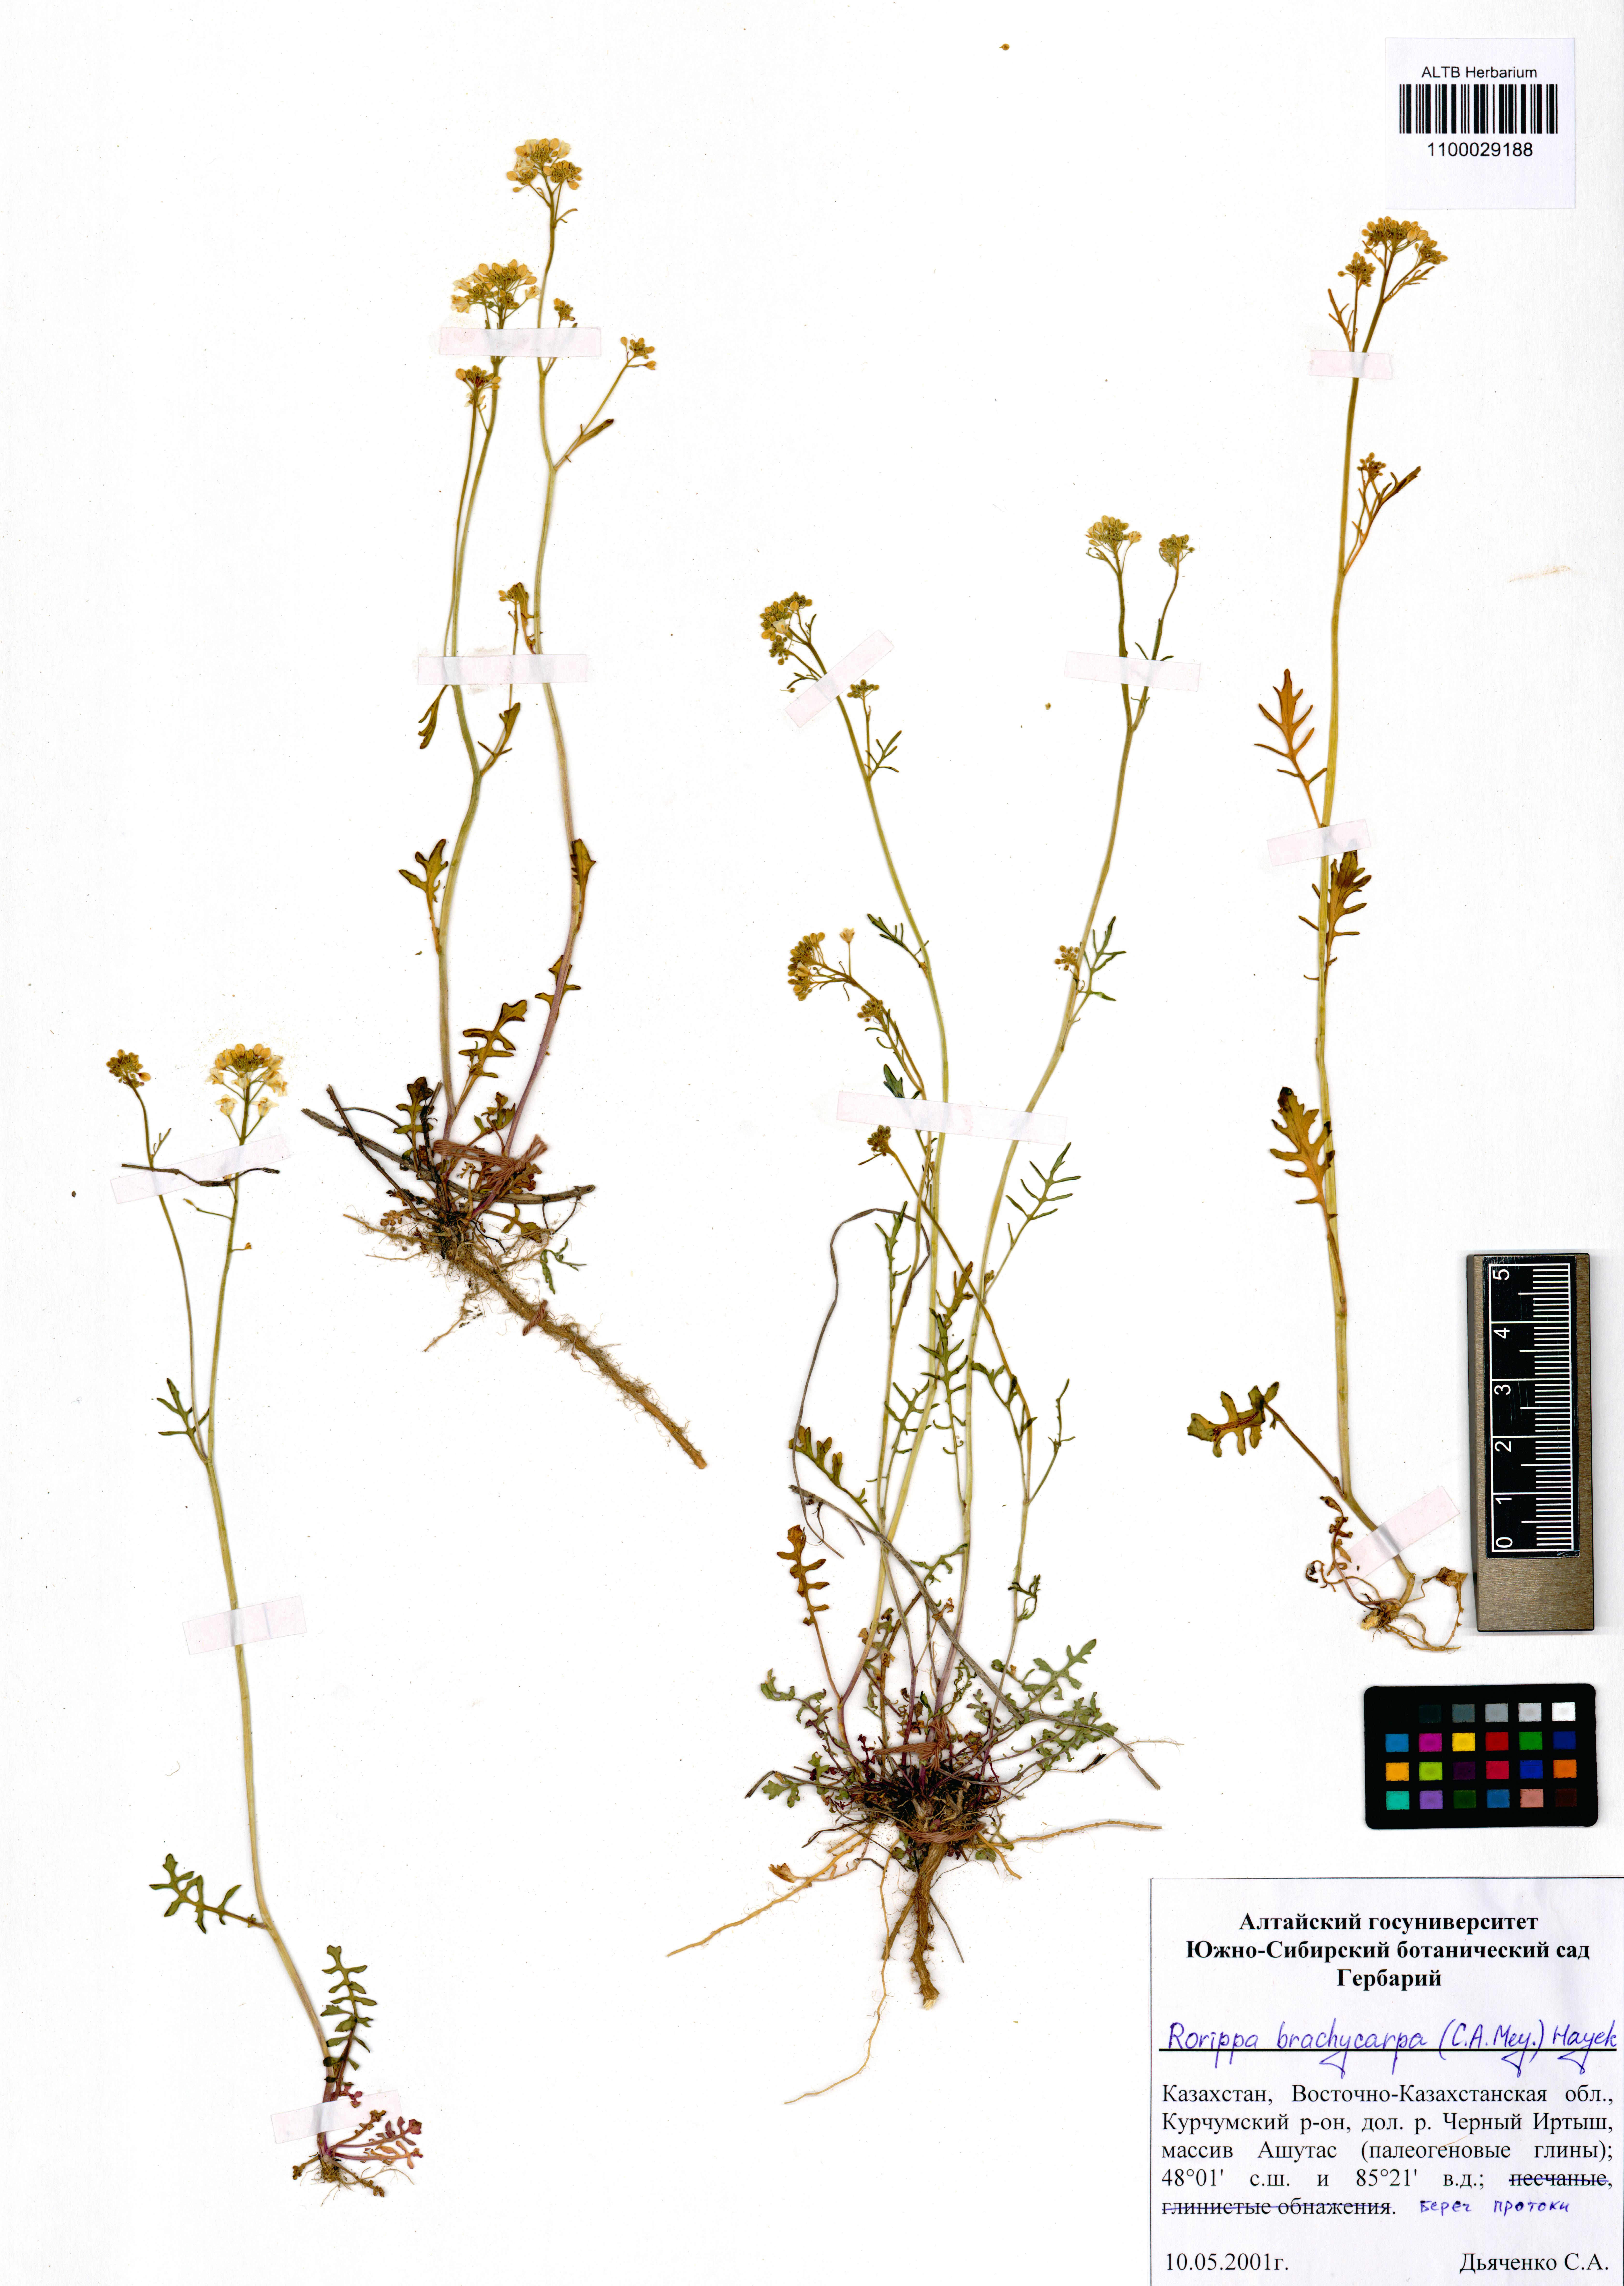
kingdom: Plantae
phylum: Tracheophyta
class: Magnoliopsida
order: Brassicales
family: Brassicaceae
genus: Rorippa
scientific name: Rorippa brachycarpa
